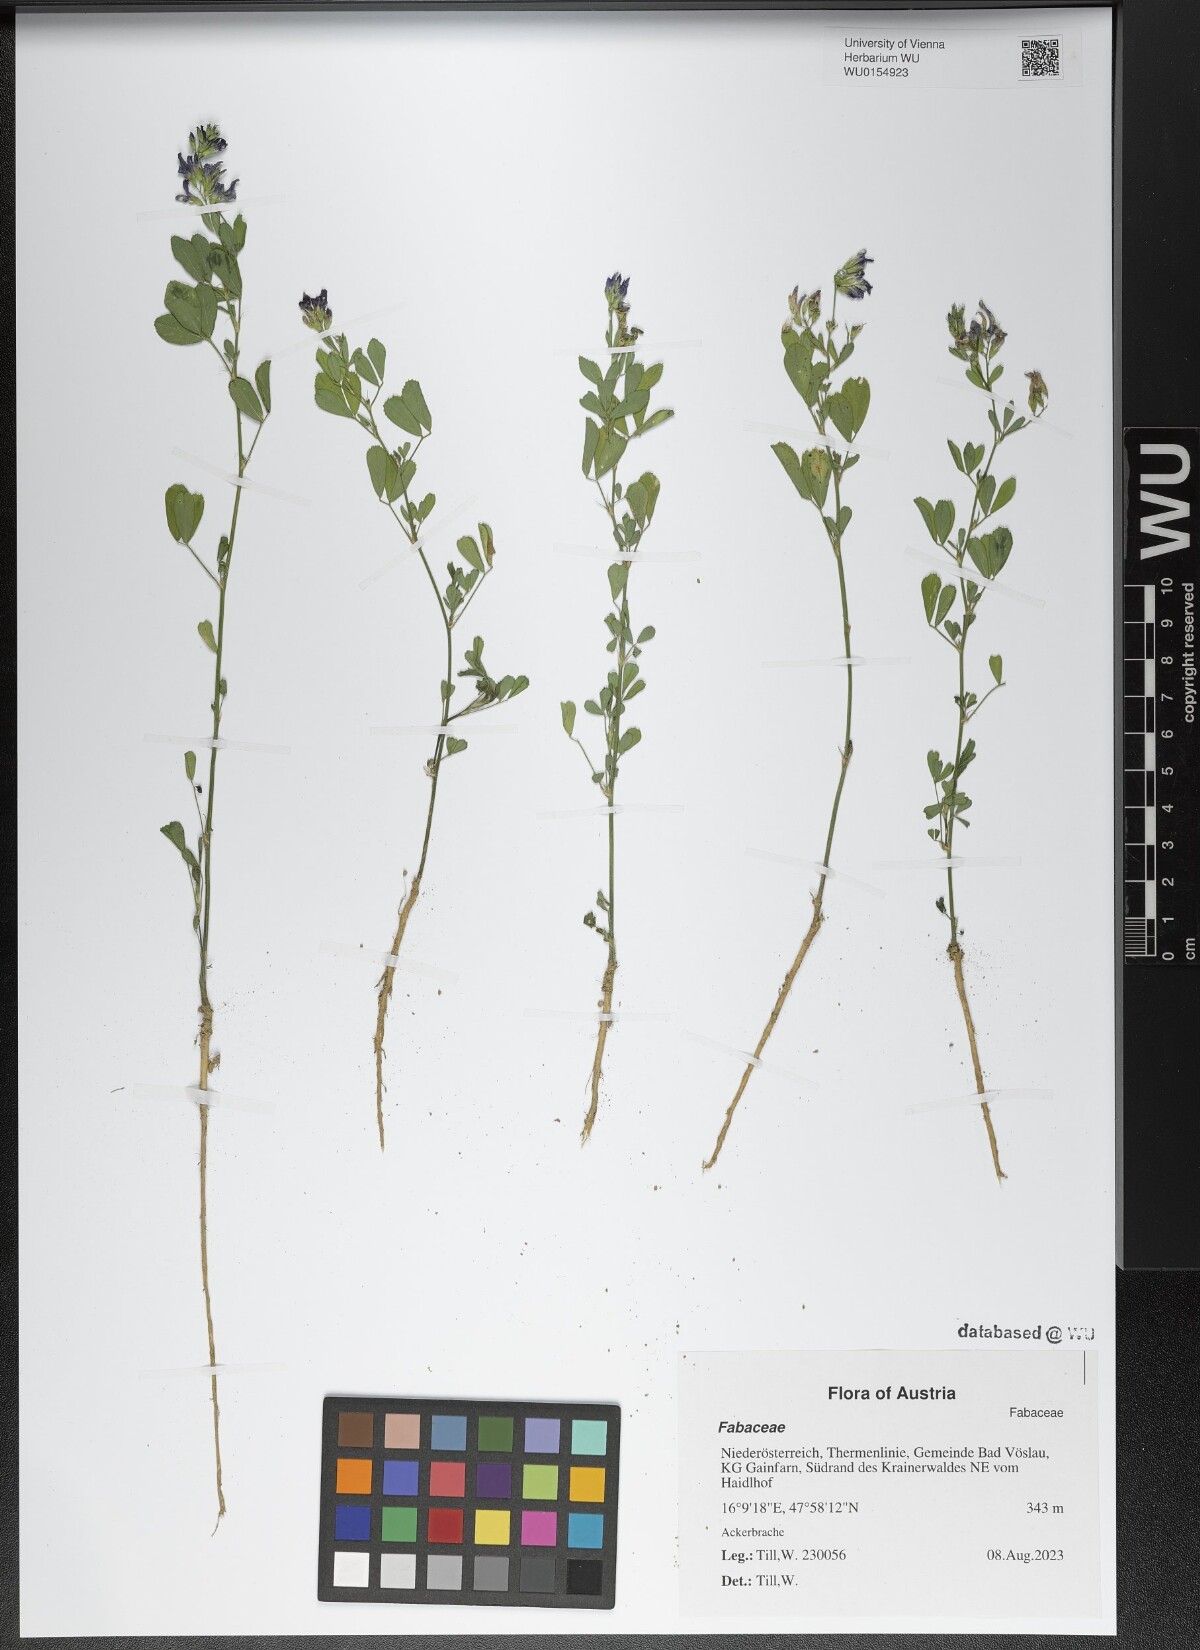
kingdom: Plantae
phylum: Tracheophyta
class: Magnoliopsida
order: Fabales
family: Fabaceae
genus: Medicago
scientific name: Medicago sativa
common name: Alfalfa
